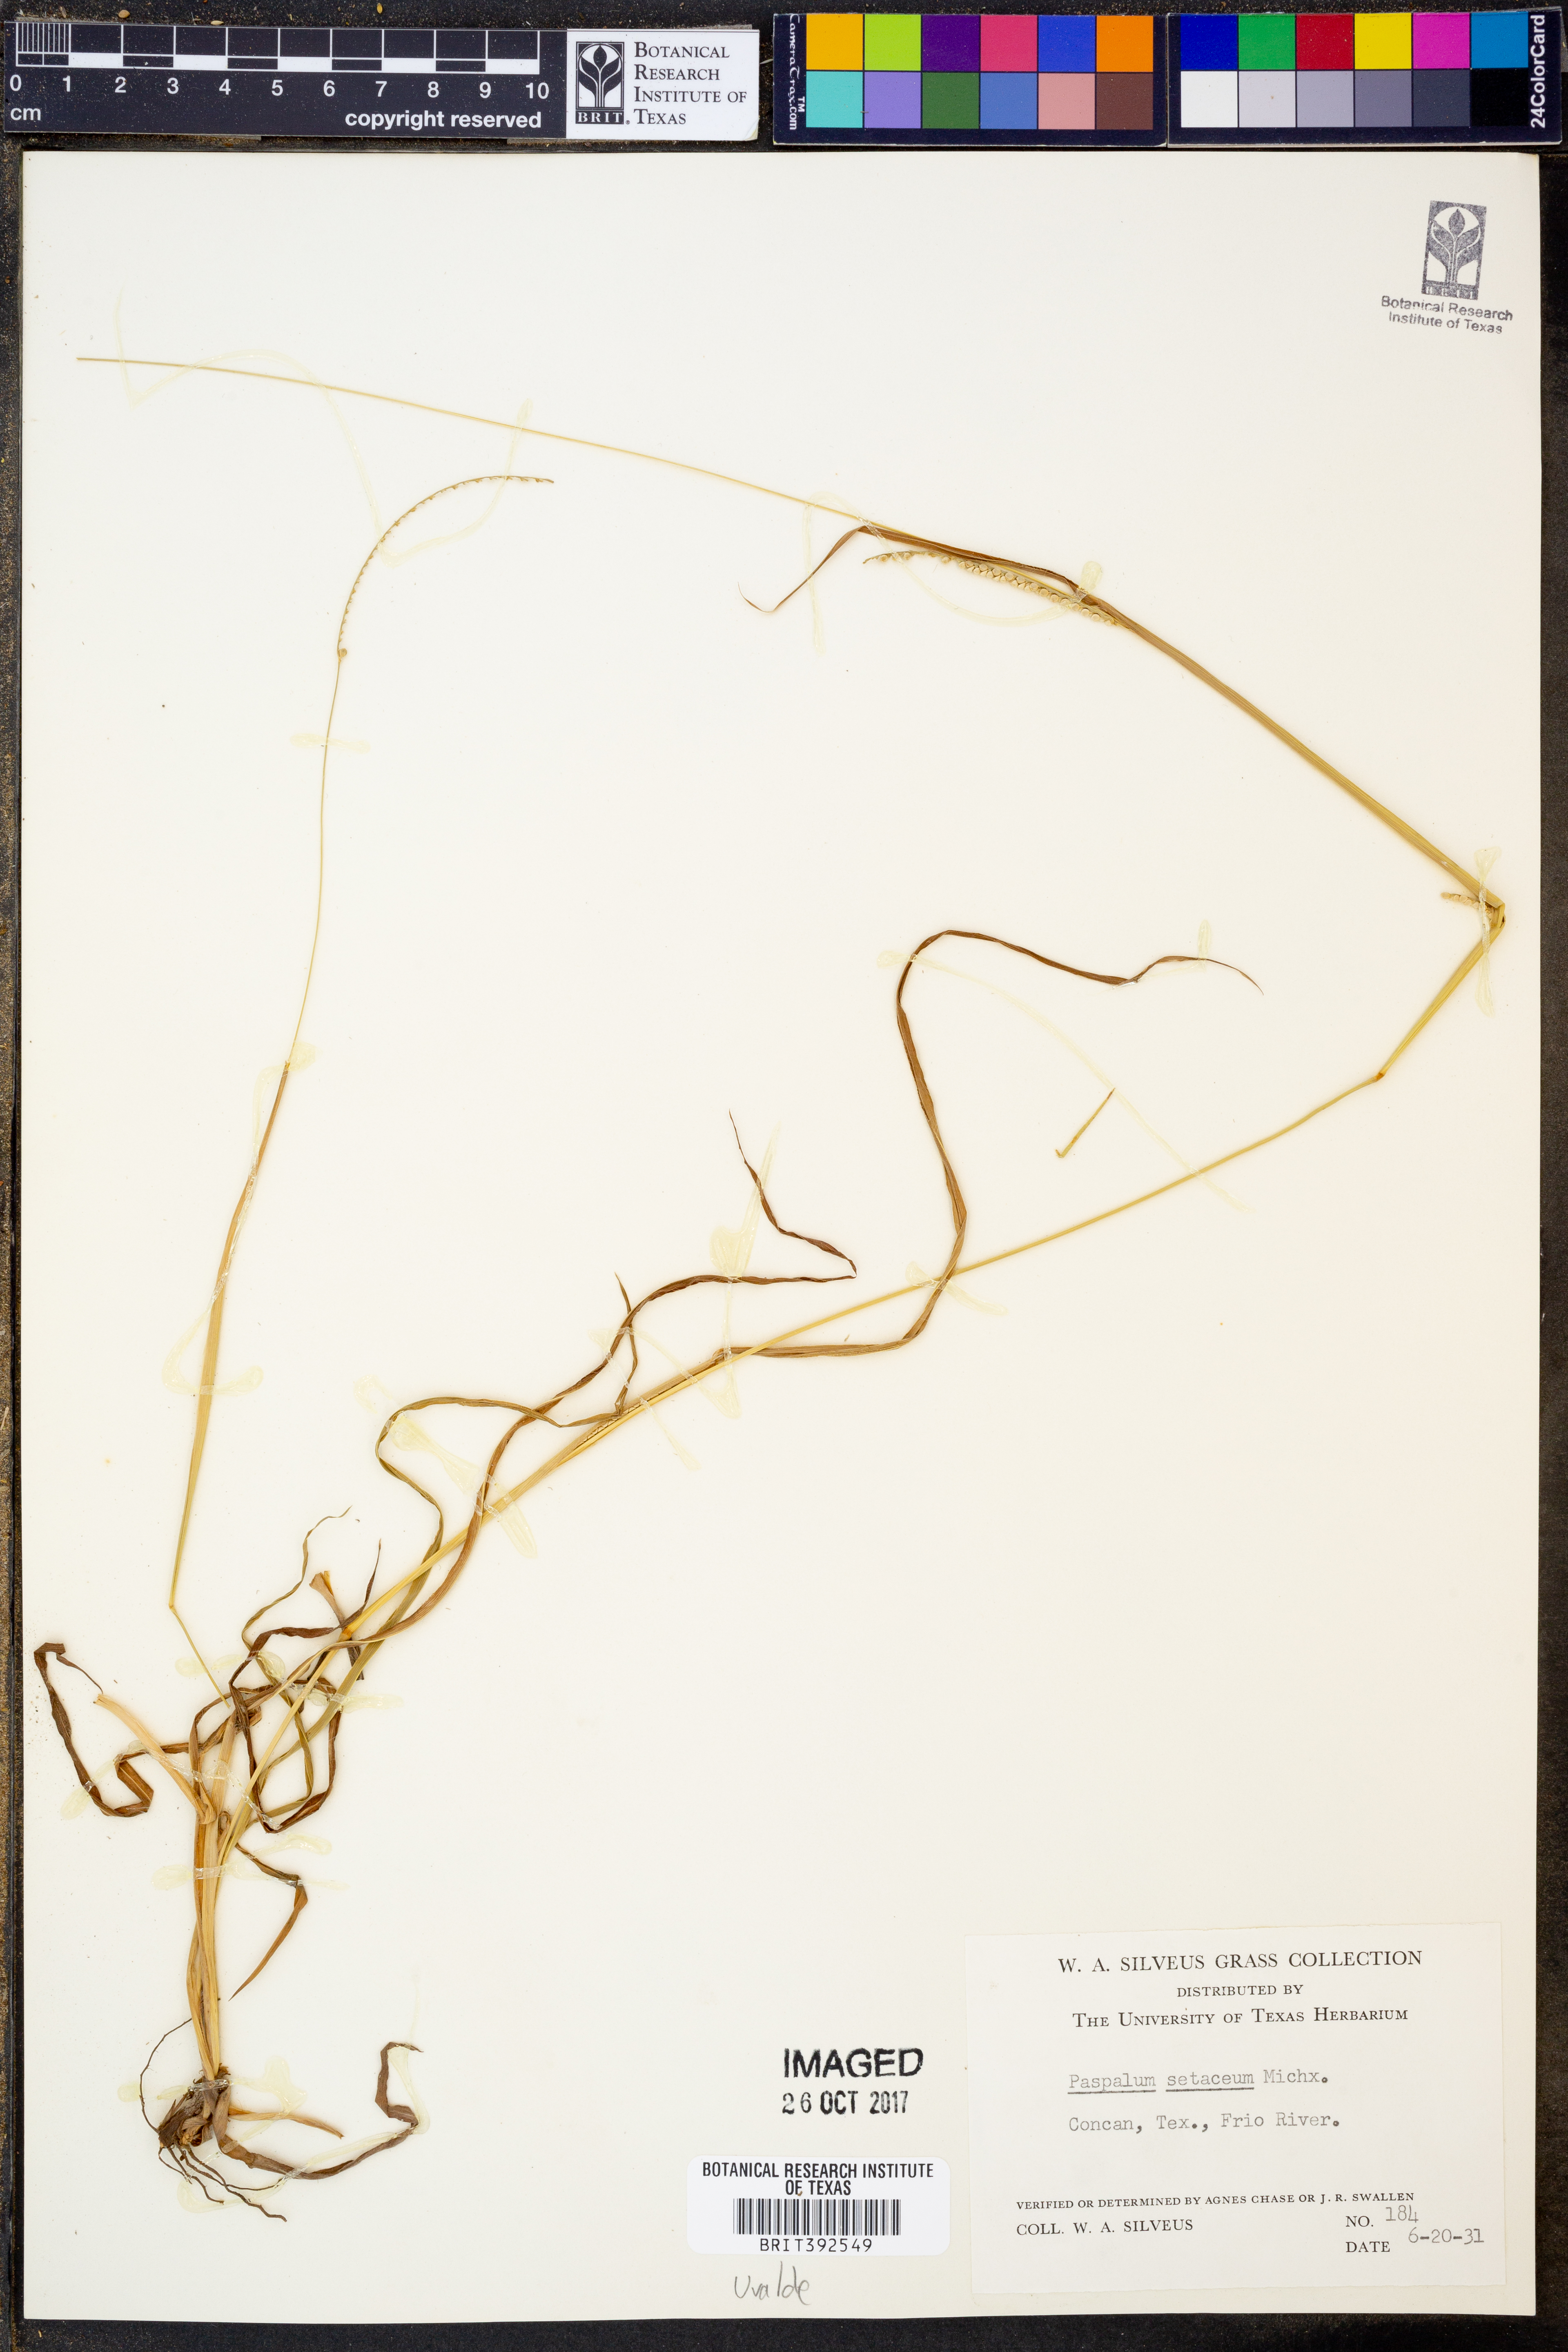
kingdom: Plantae
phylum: Tracheophyta
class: Liliopsida
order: Poales
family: Poaceae
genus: Paspalum
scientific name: Paspalum setaceum
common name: Slender paspalum
